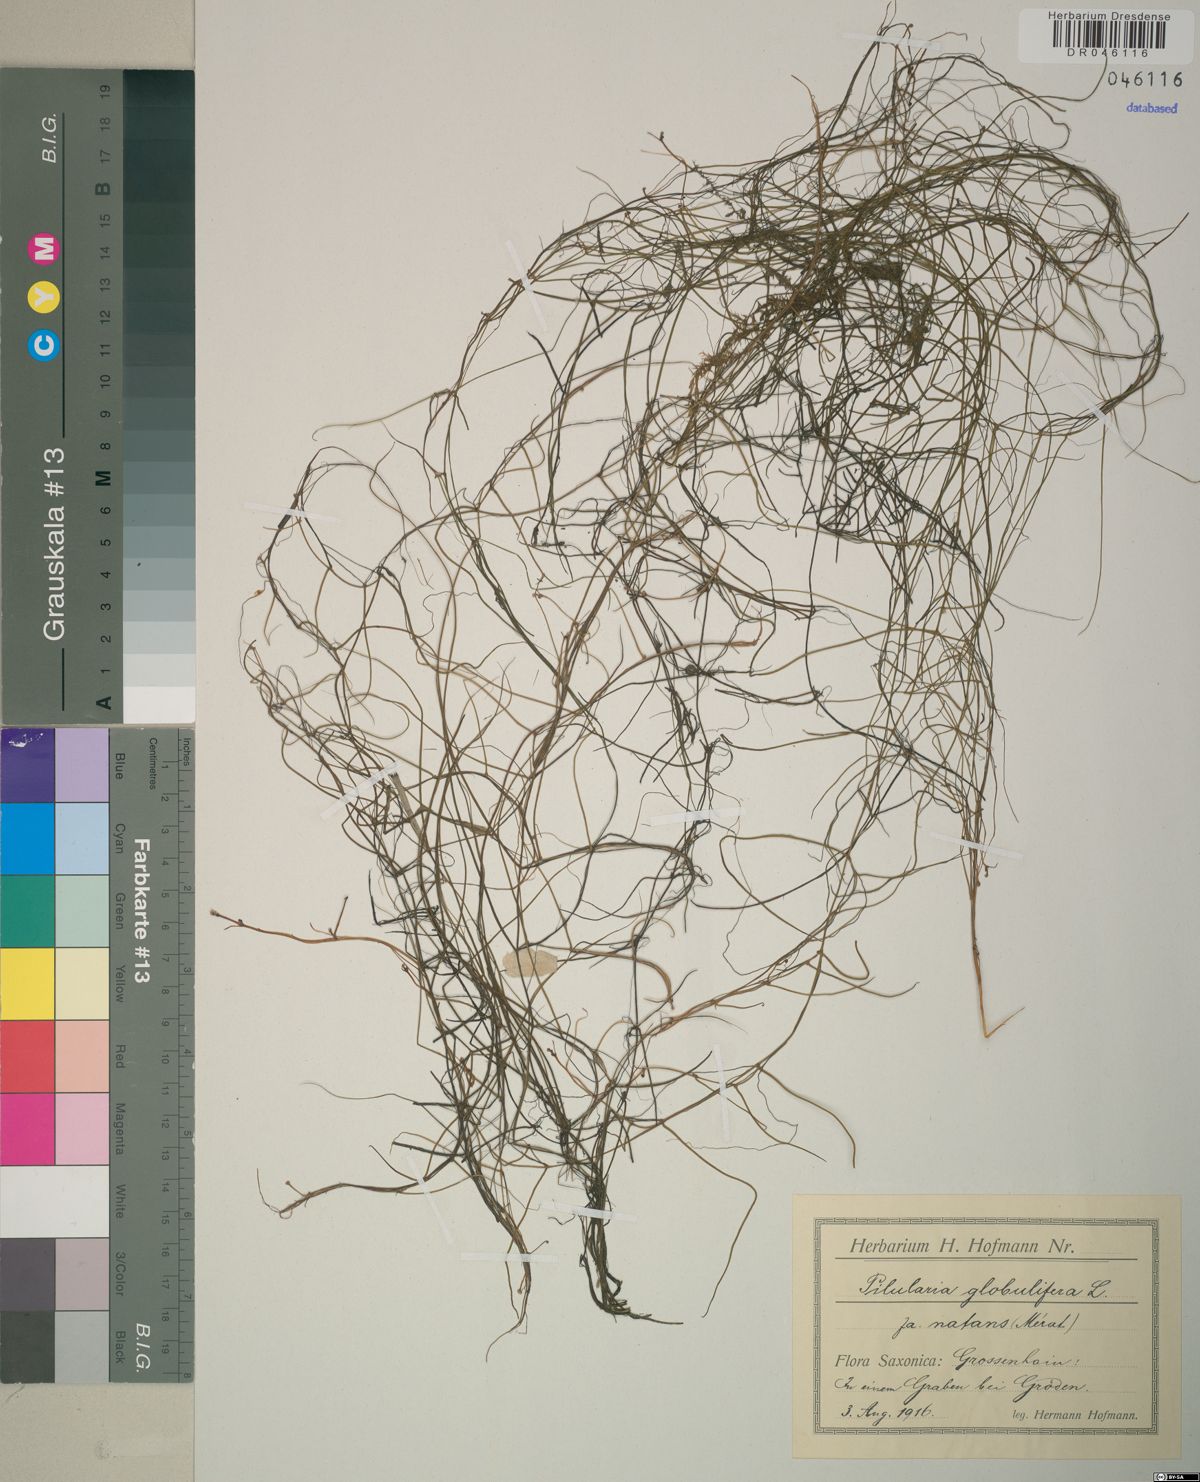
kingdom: Plantae
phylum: Tracheophyta
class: Polypodiopsida
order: Salviniales
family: Marsileaceae
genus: Pilularia
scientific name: Pilularia globulifera
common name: Pillwort
